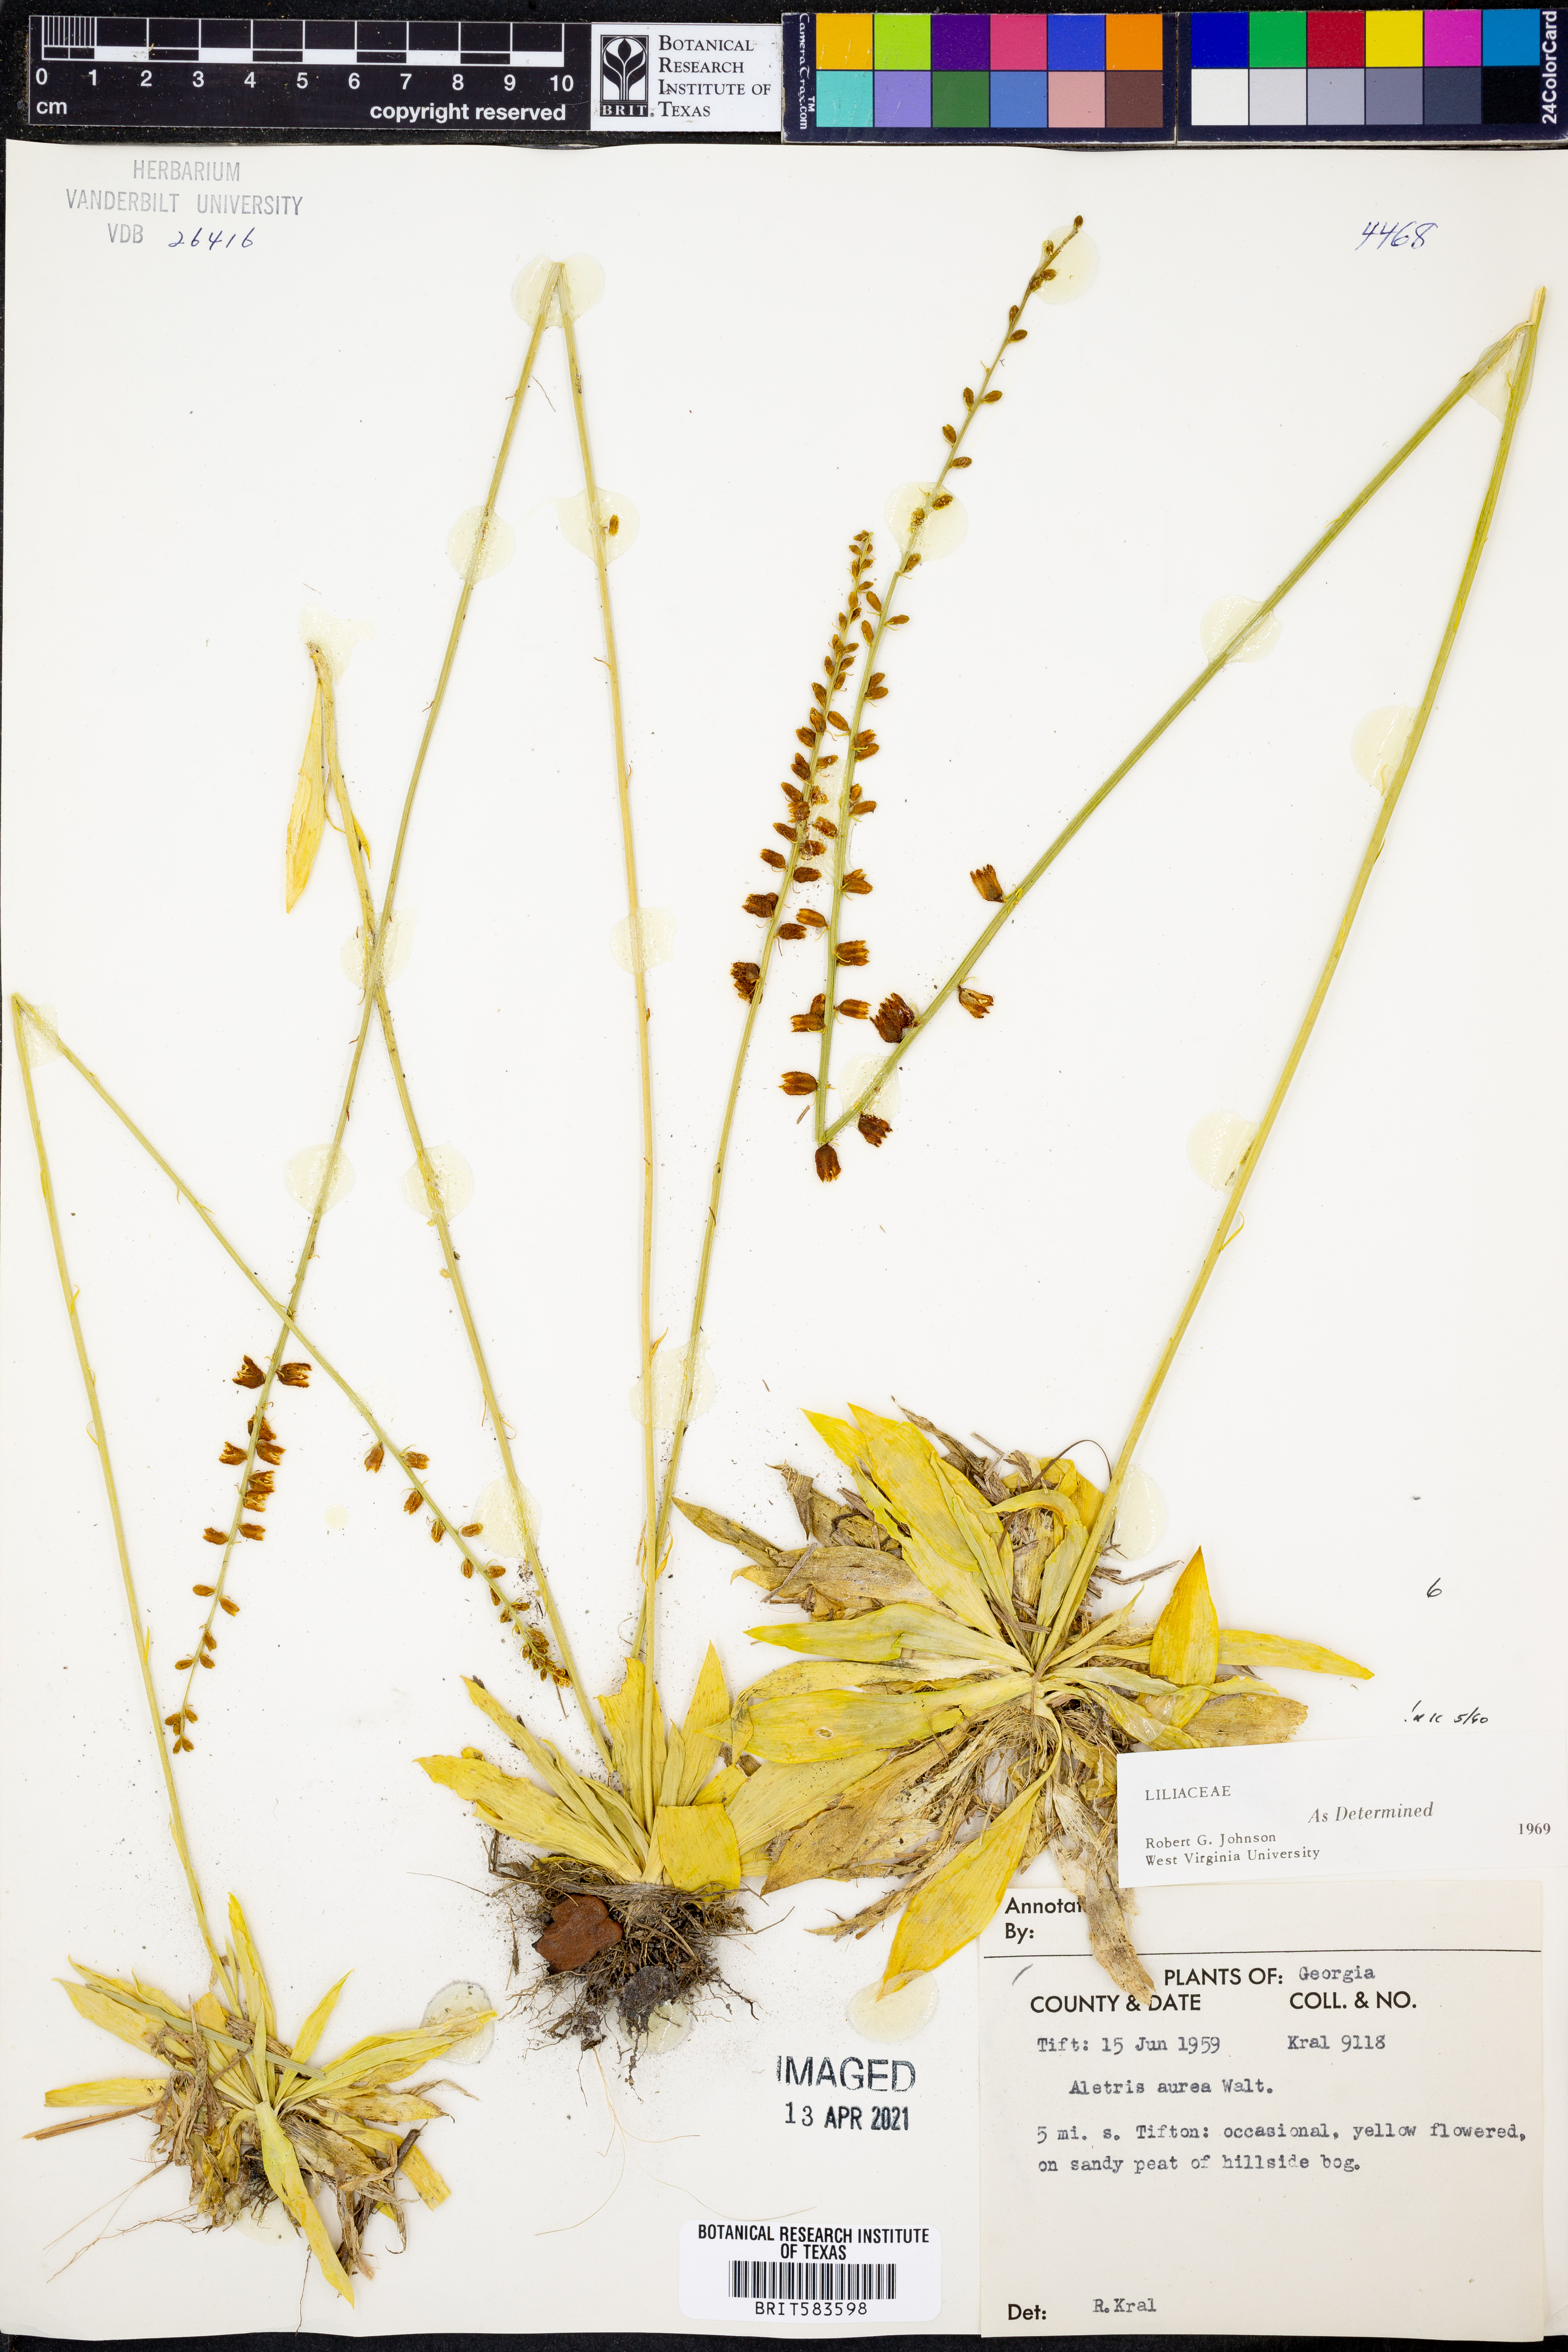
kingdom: Plantae
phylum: Tracheophyta
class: Liliopsida
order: Dioscoreales
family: Nartheciaceae
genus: Aletris
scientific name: Aletris aurea
